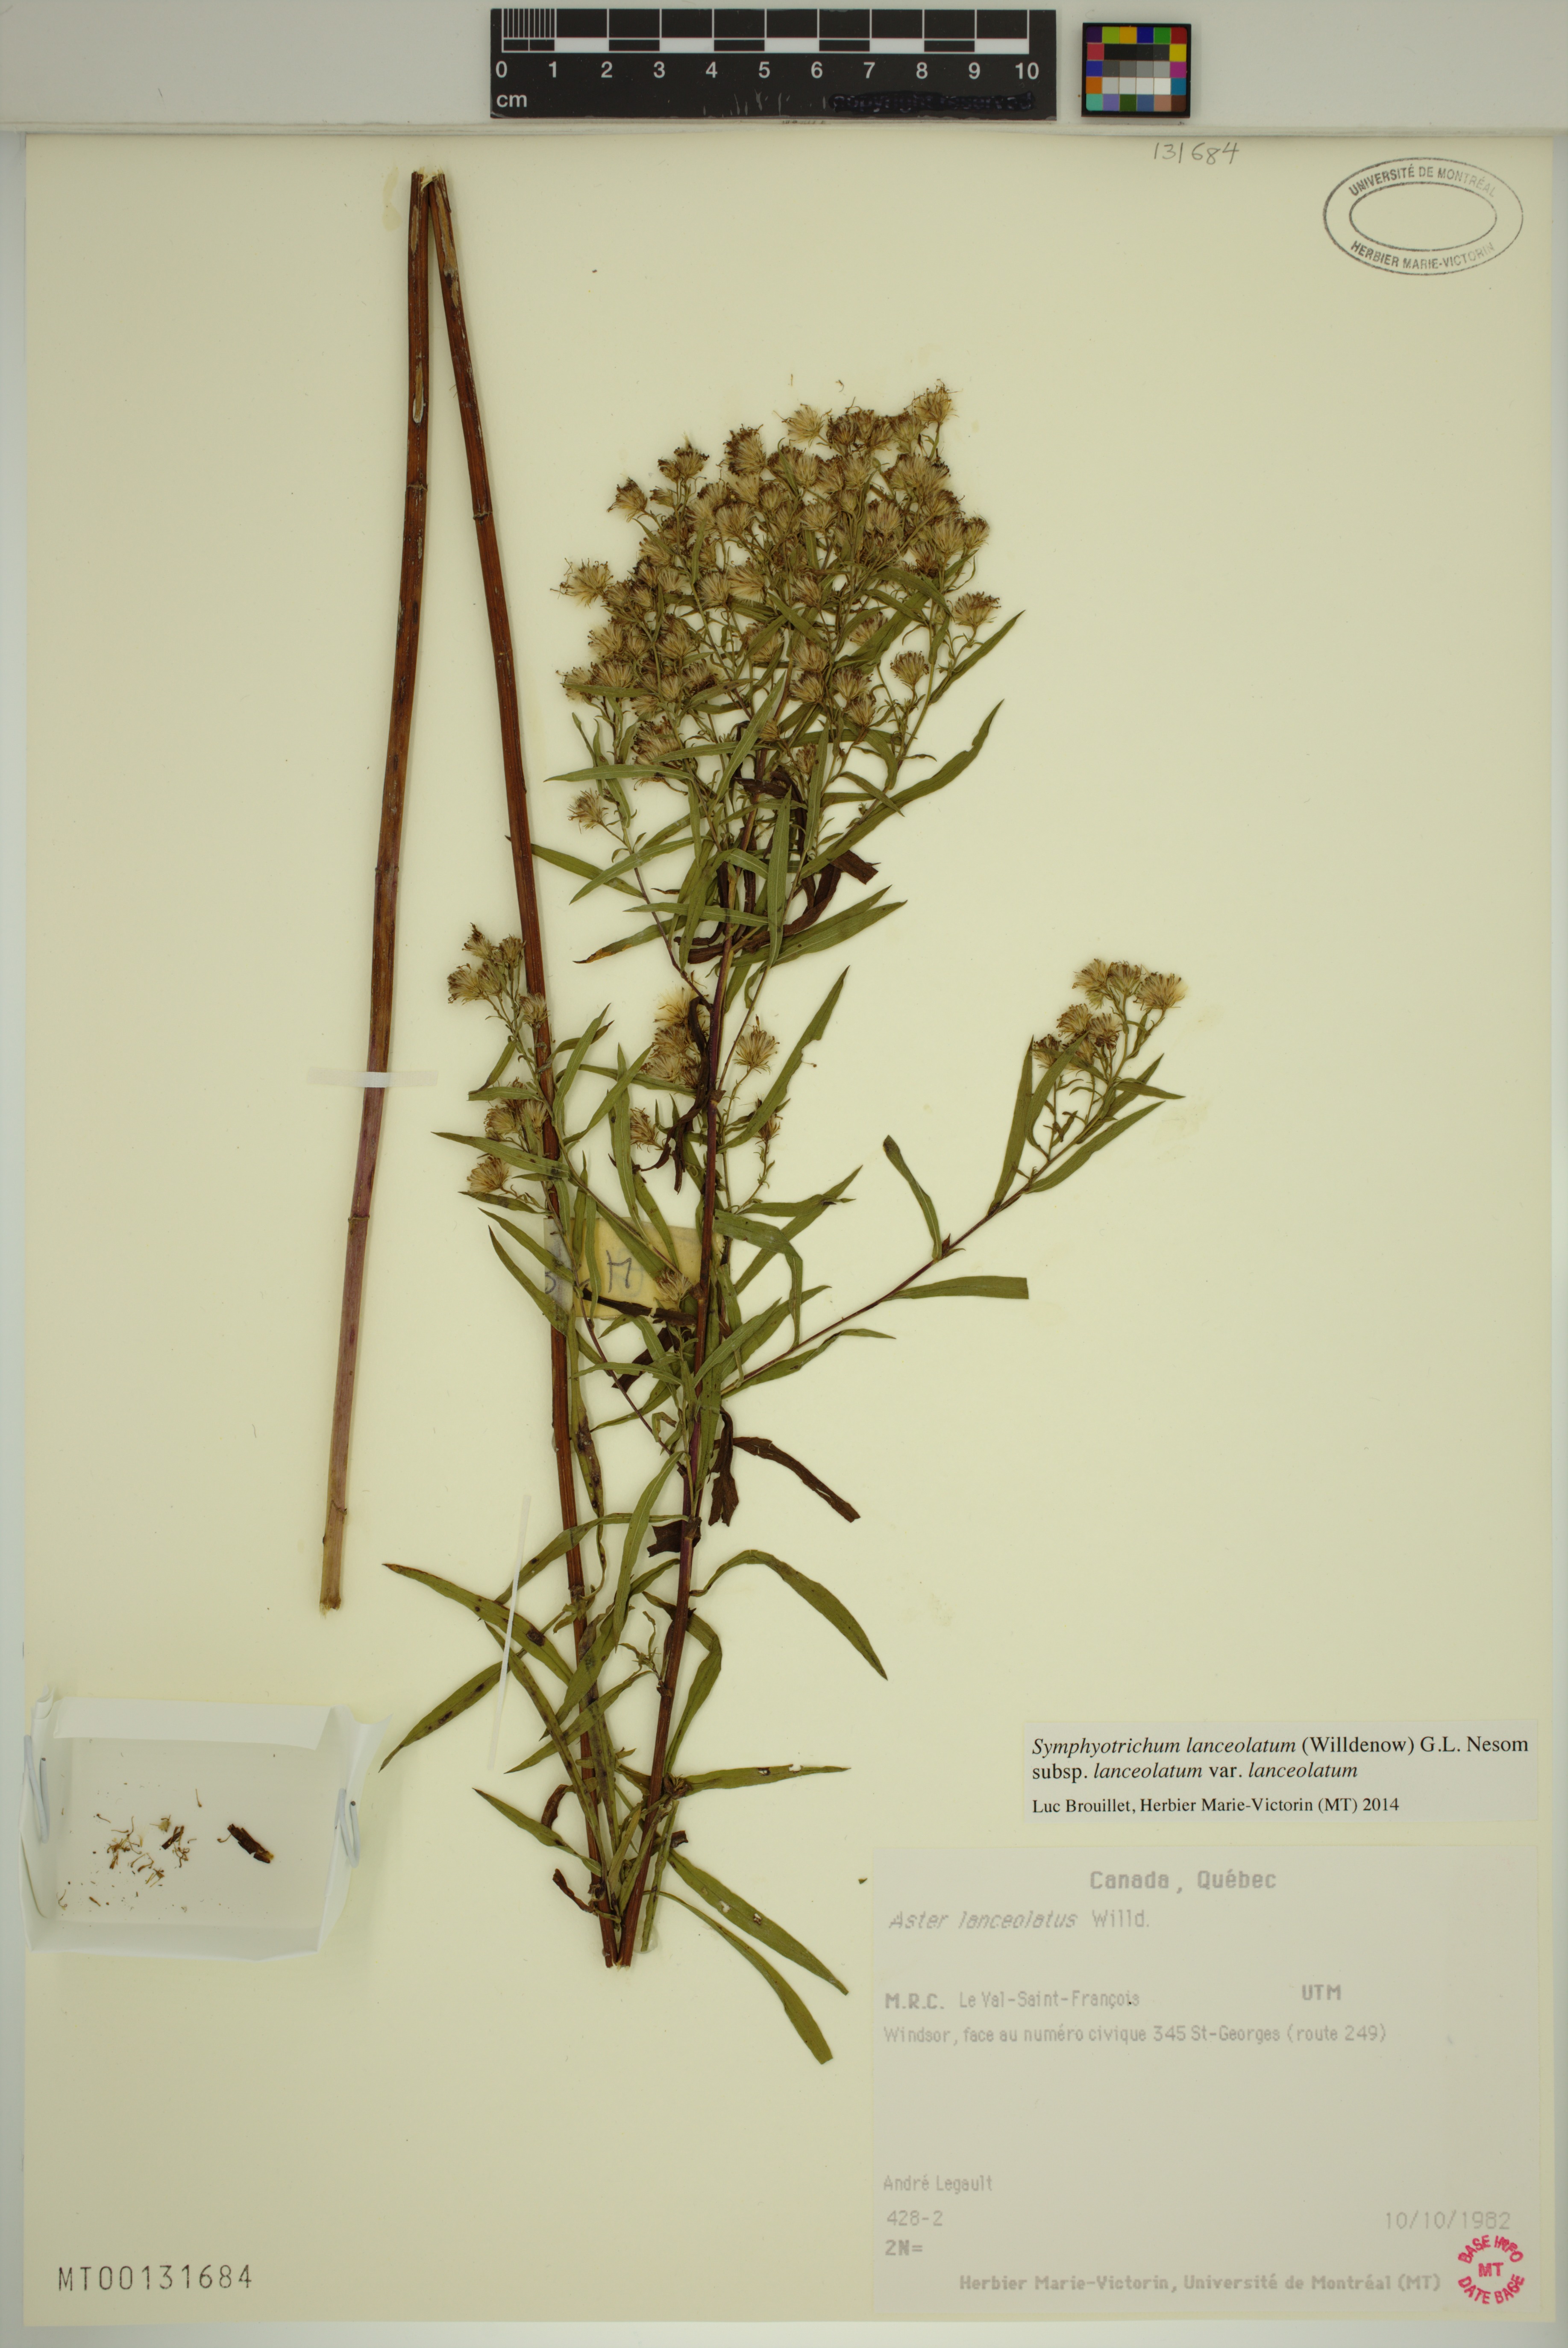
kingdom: Plantae
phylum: Tracheophyta
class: Magnoliopsida
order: Asterales
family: Asteraceae
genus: Symphyotrichum
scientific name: Symphyotrichum lanceolatum
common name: Panicled aster
